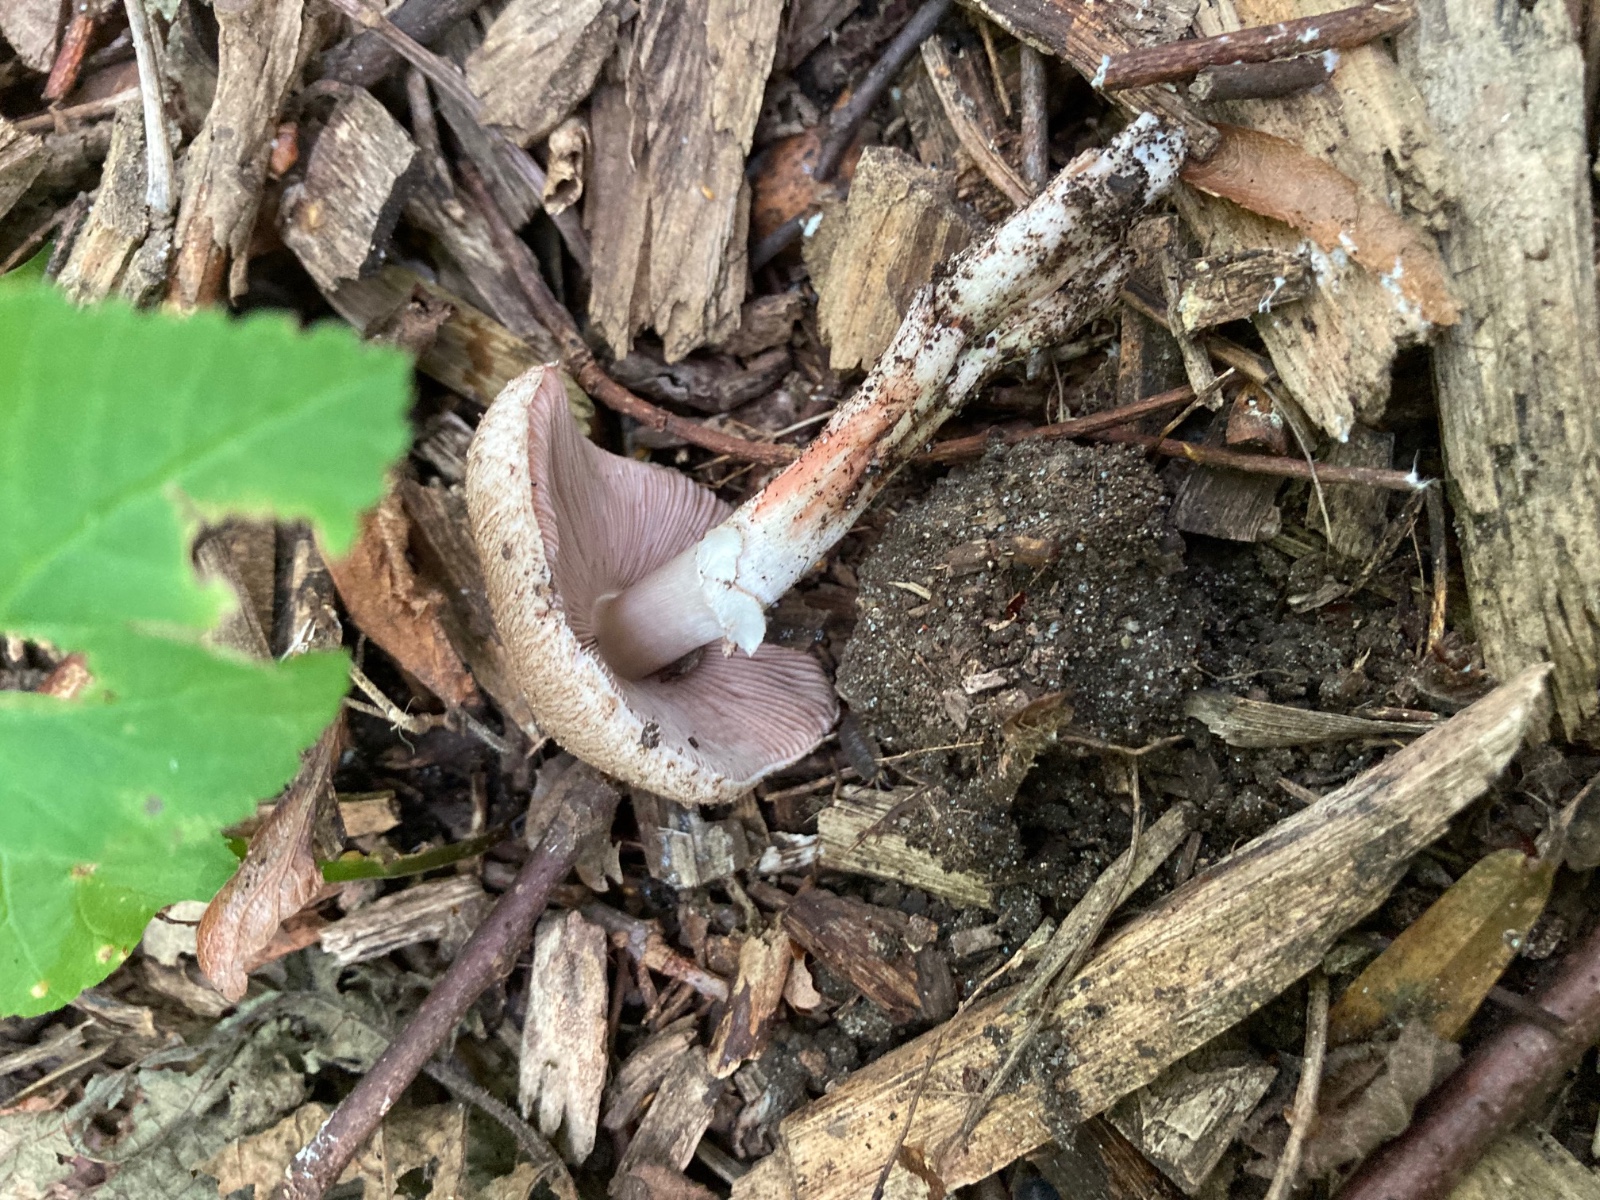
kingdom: Fungi
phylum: Basidiomycota
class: Agaricomycetes
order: Agaricales
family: Agaricaceae
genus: Agaricus
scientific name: Agaricus langei
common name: stor blod-champignon
